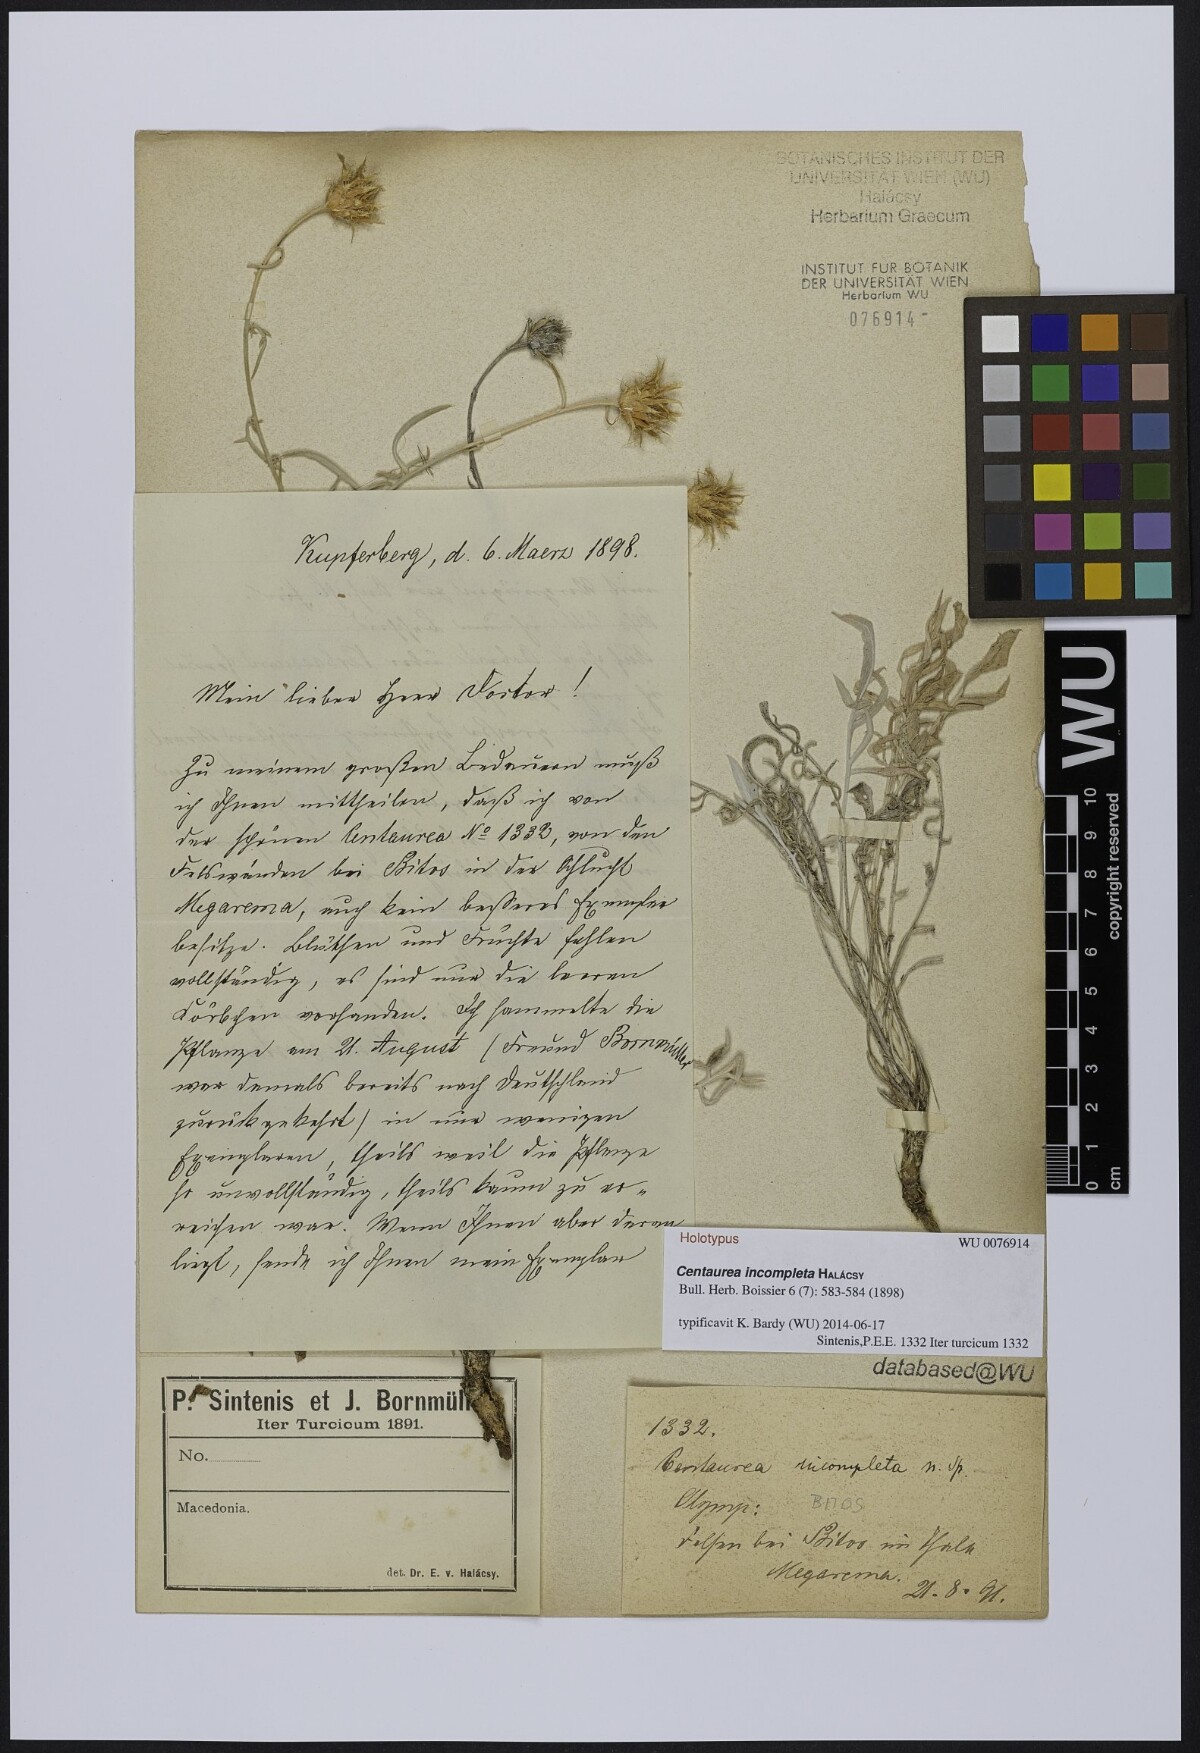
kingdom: Plantae
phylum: Tracheophyta
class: Magnoliopsida
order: Asterales
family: Asteraceae
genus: Centaurea
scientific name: Centaurea incompleta
